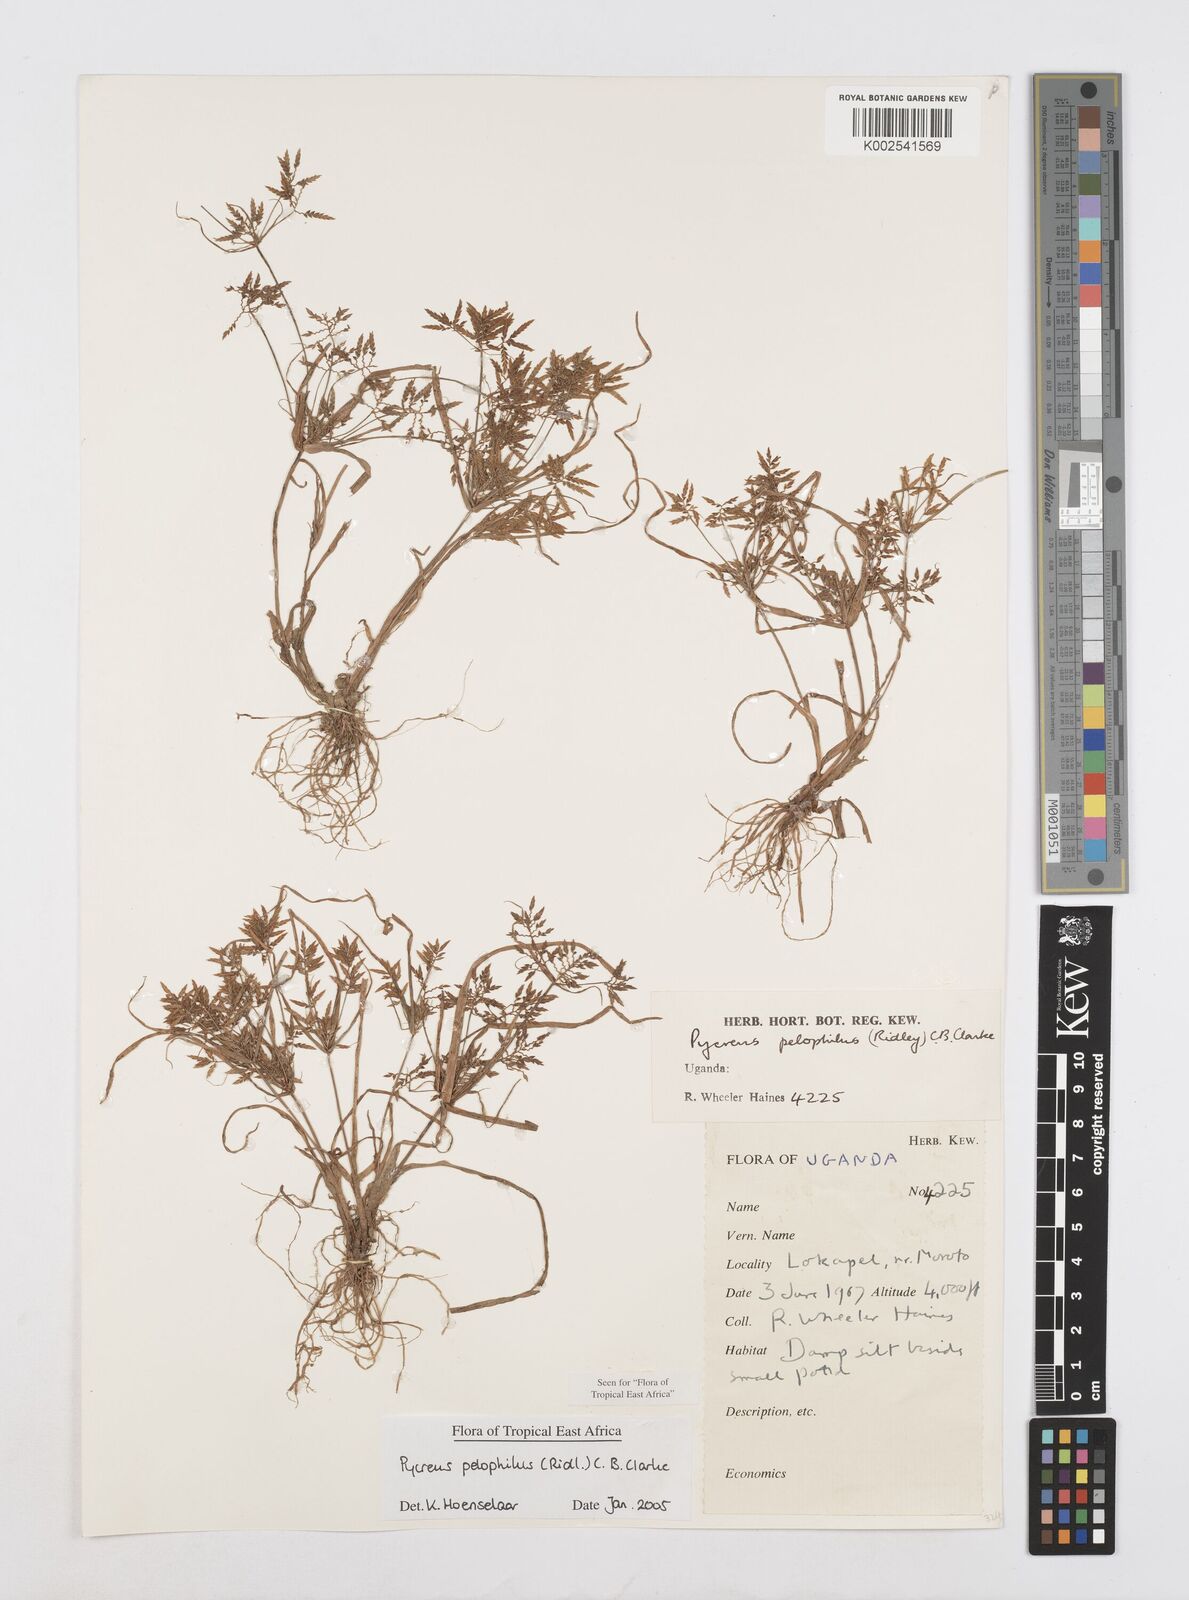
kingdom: Plantae
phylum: Tracheophyta
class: Liliopsida
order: Poales
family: Cyperaceae
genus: Cyperus
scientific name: Cyperus pelophilus
